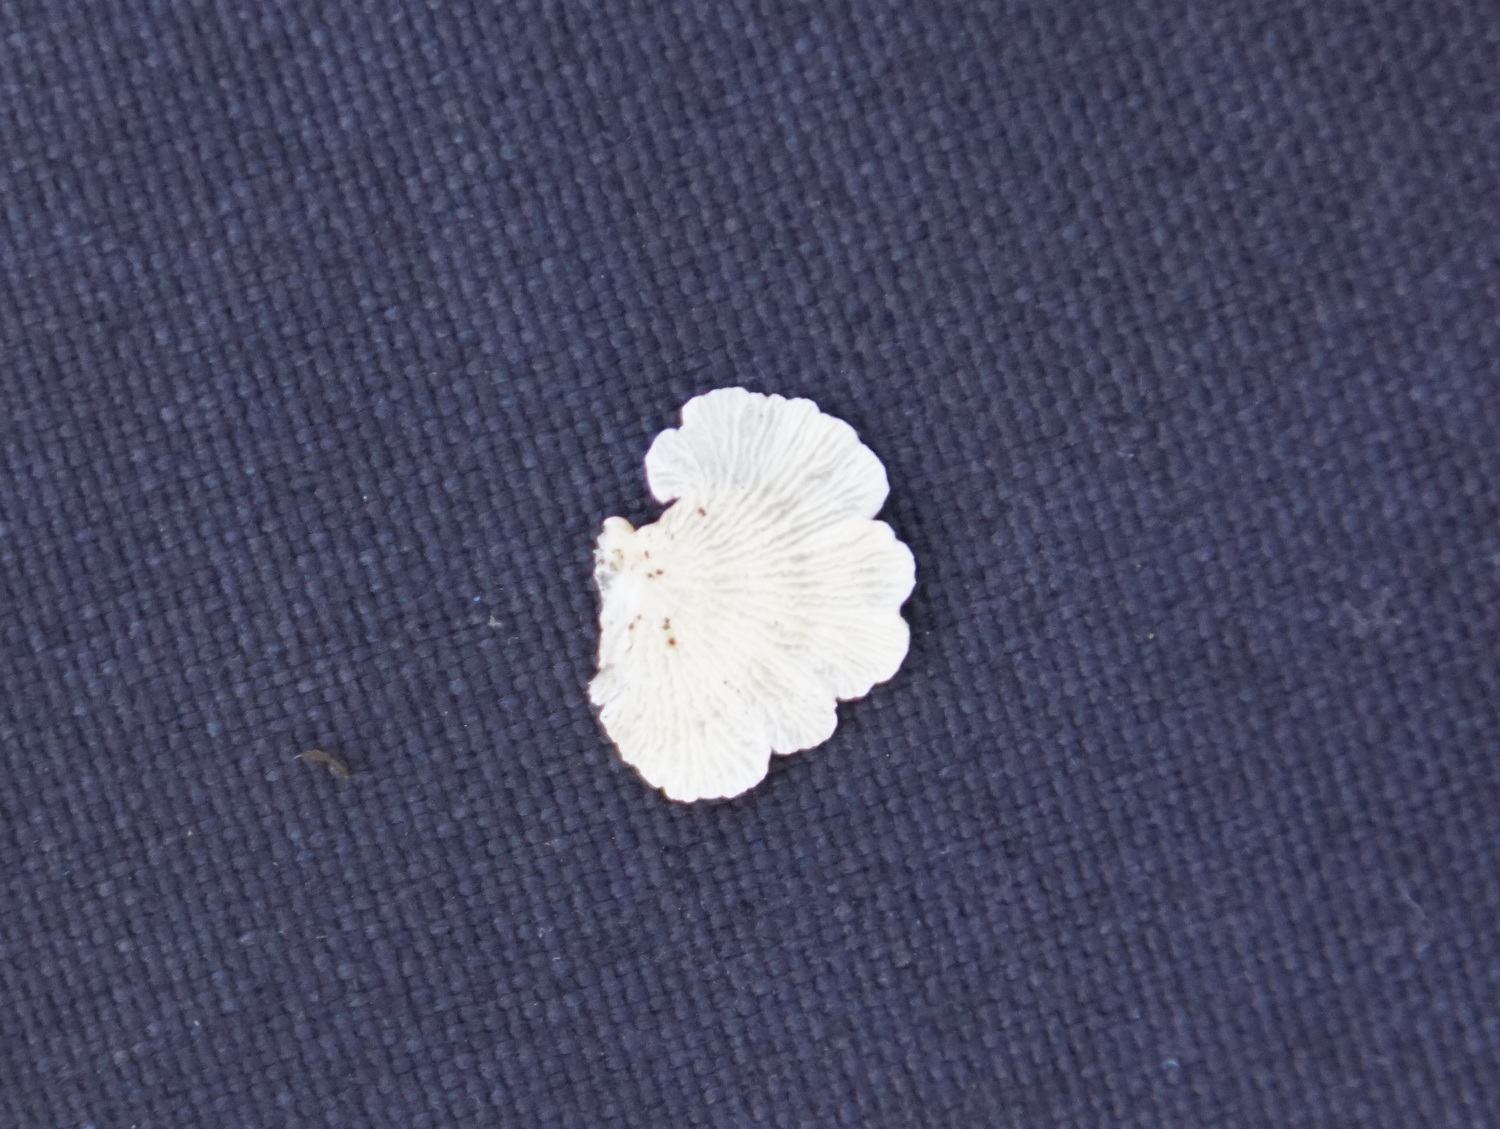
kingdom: Fungi
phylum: Basidiomycota
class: Agaricomycetes
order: Amylocorticiales
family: Amylocorticiaceae
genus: Plicaturopsis
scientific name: Plicaturopsis crispa
